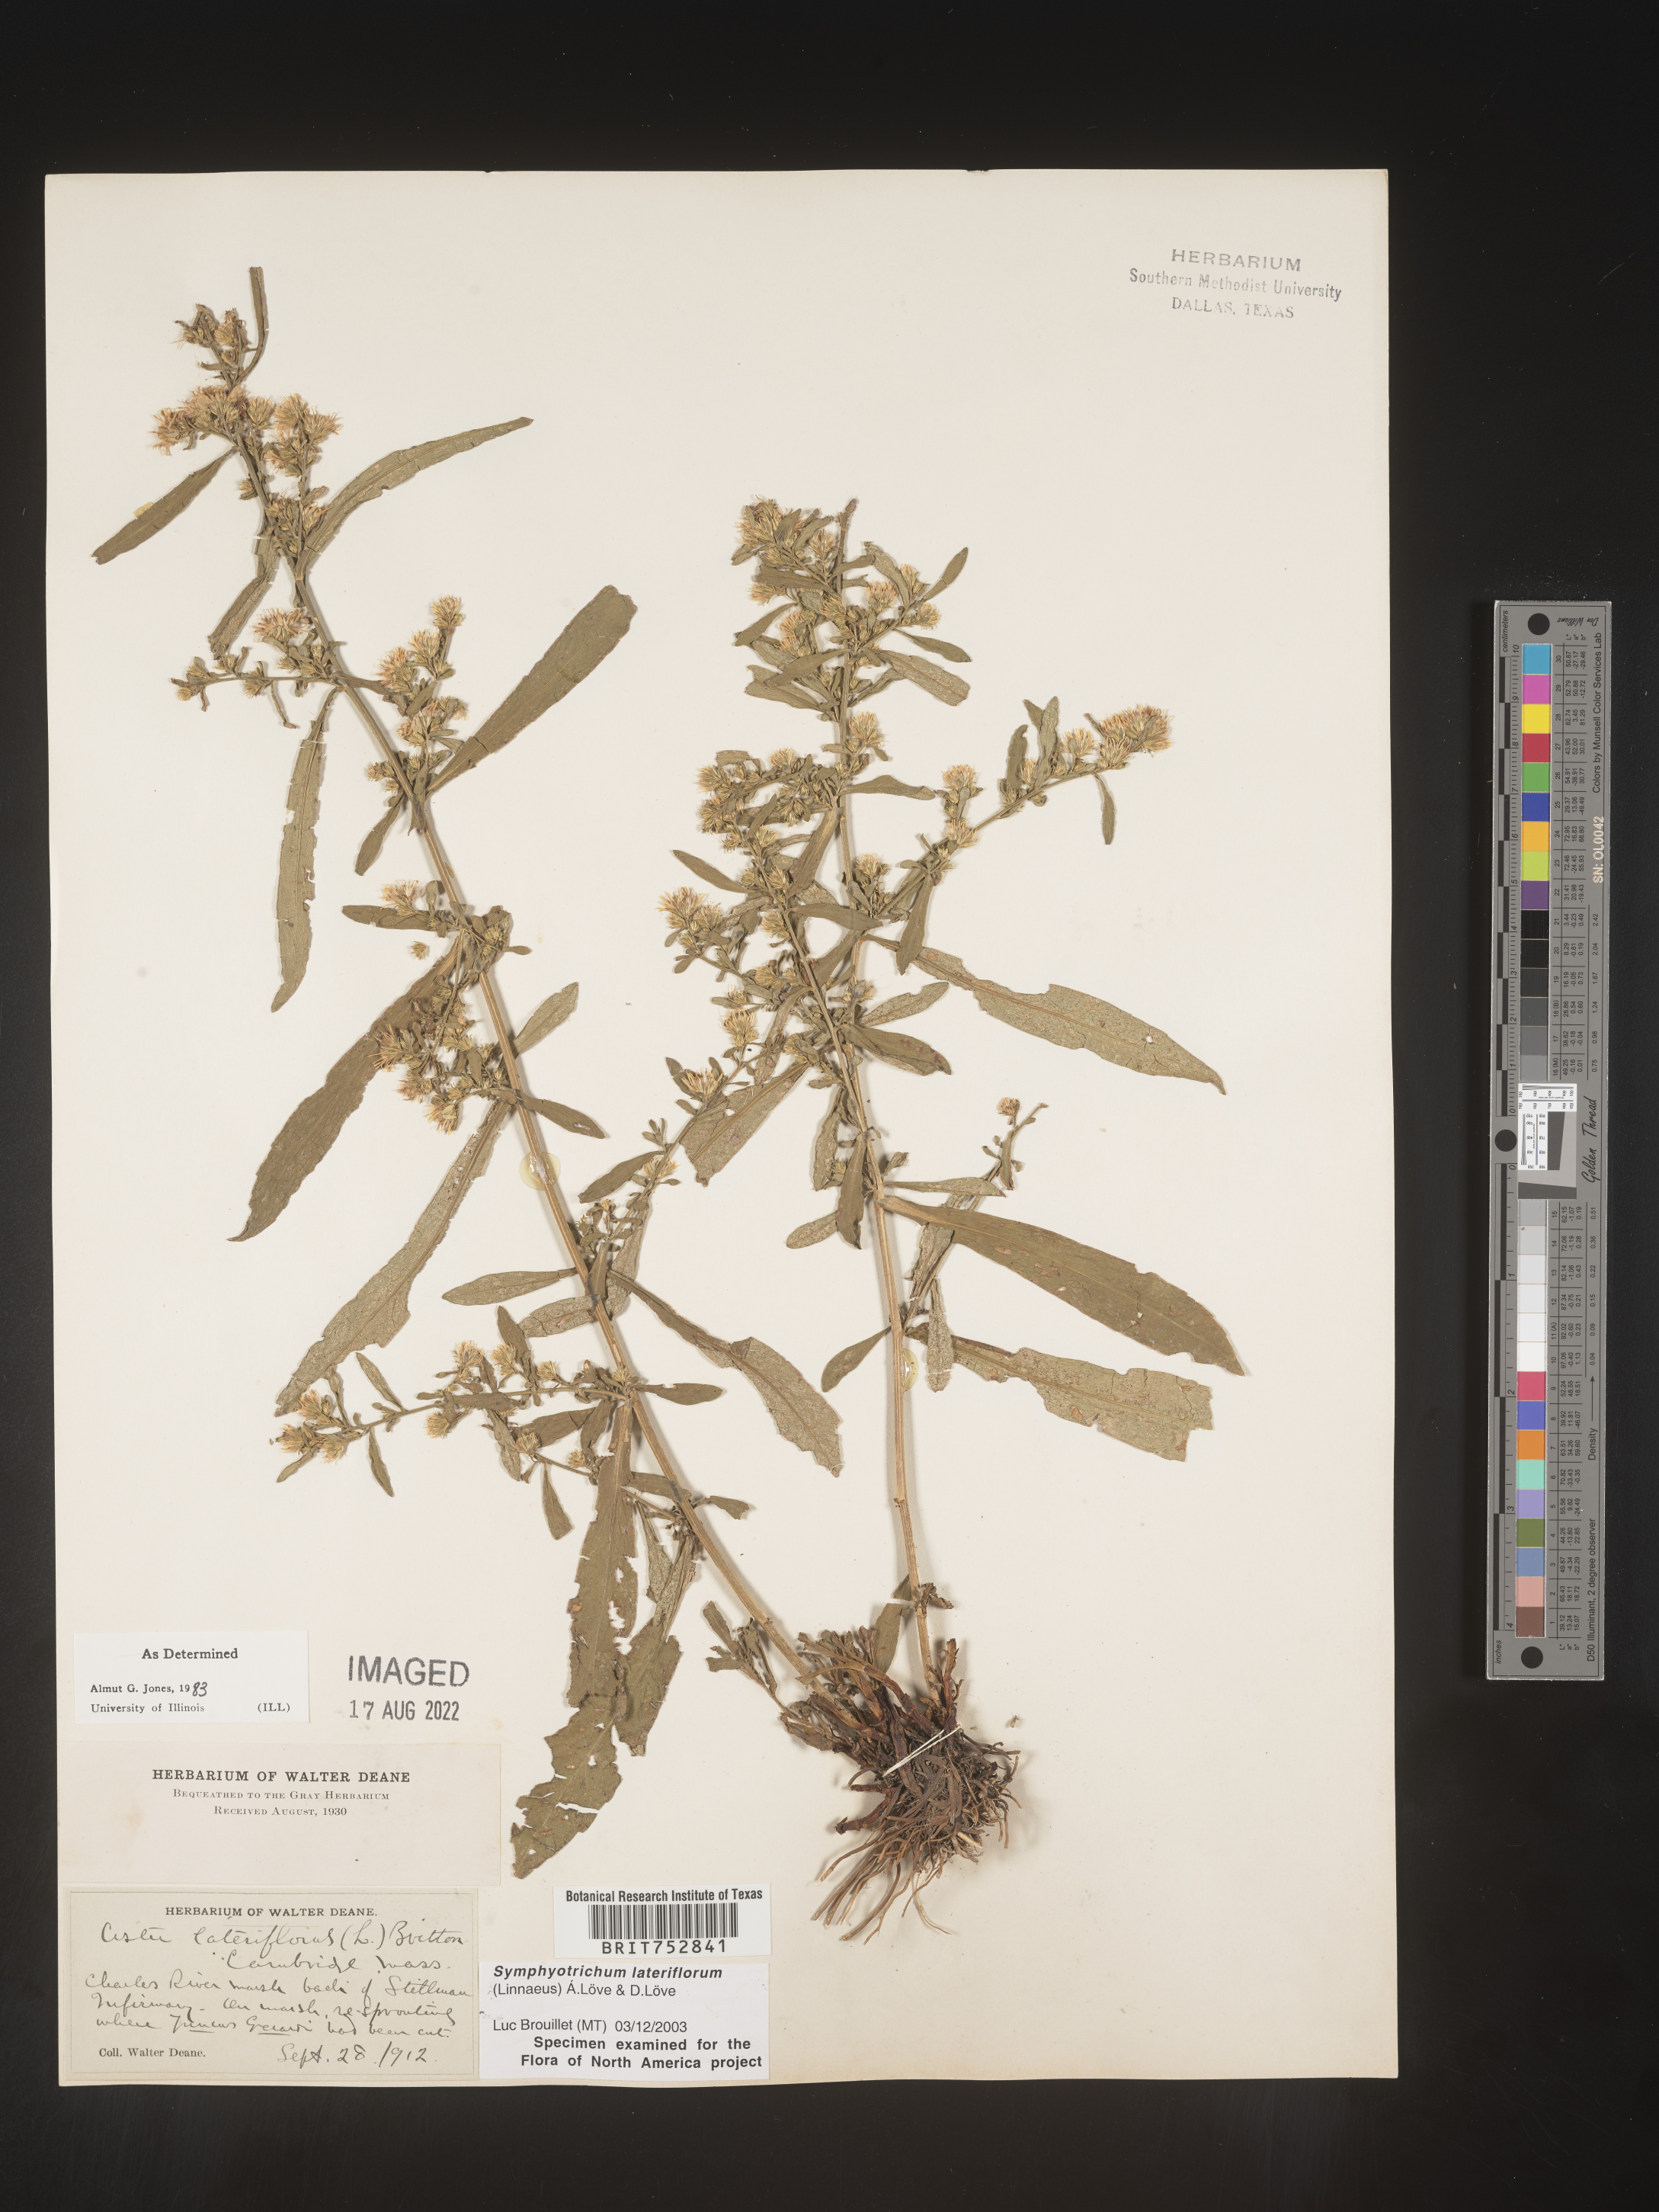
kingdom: Plantae
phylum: Tracheophyta
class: Magnoliopsida
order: Asterales
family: Asteraceae
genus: Symphyotrichum
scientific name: Symphyotrichum lateriflorum
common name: Calico aster
